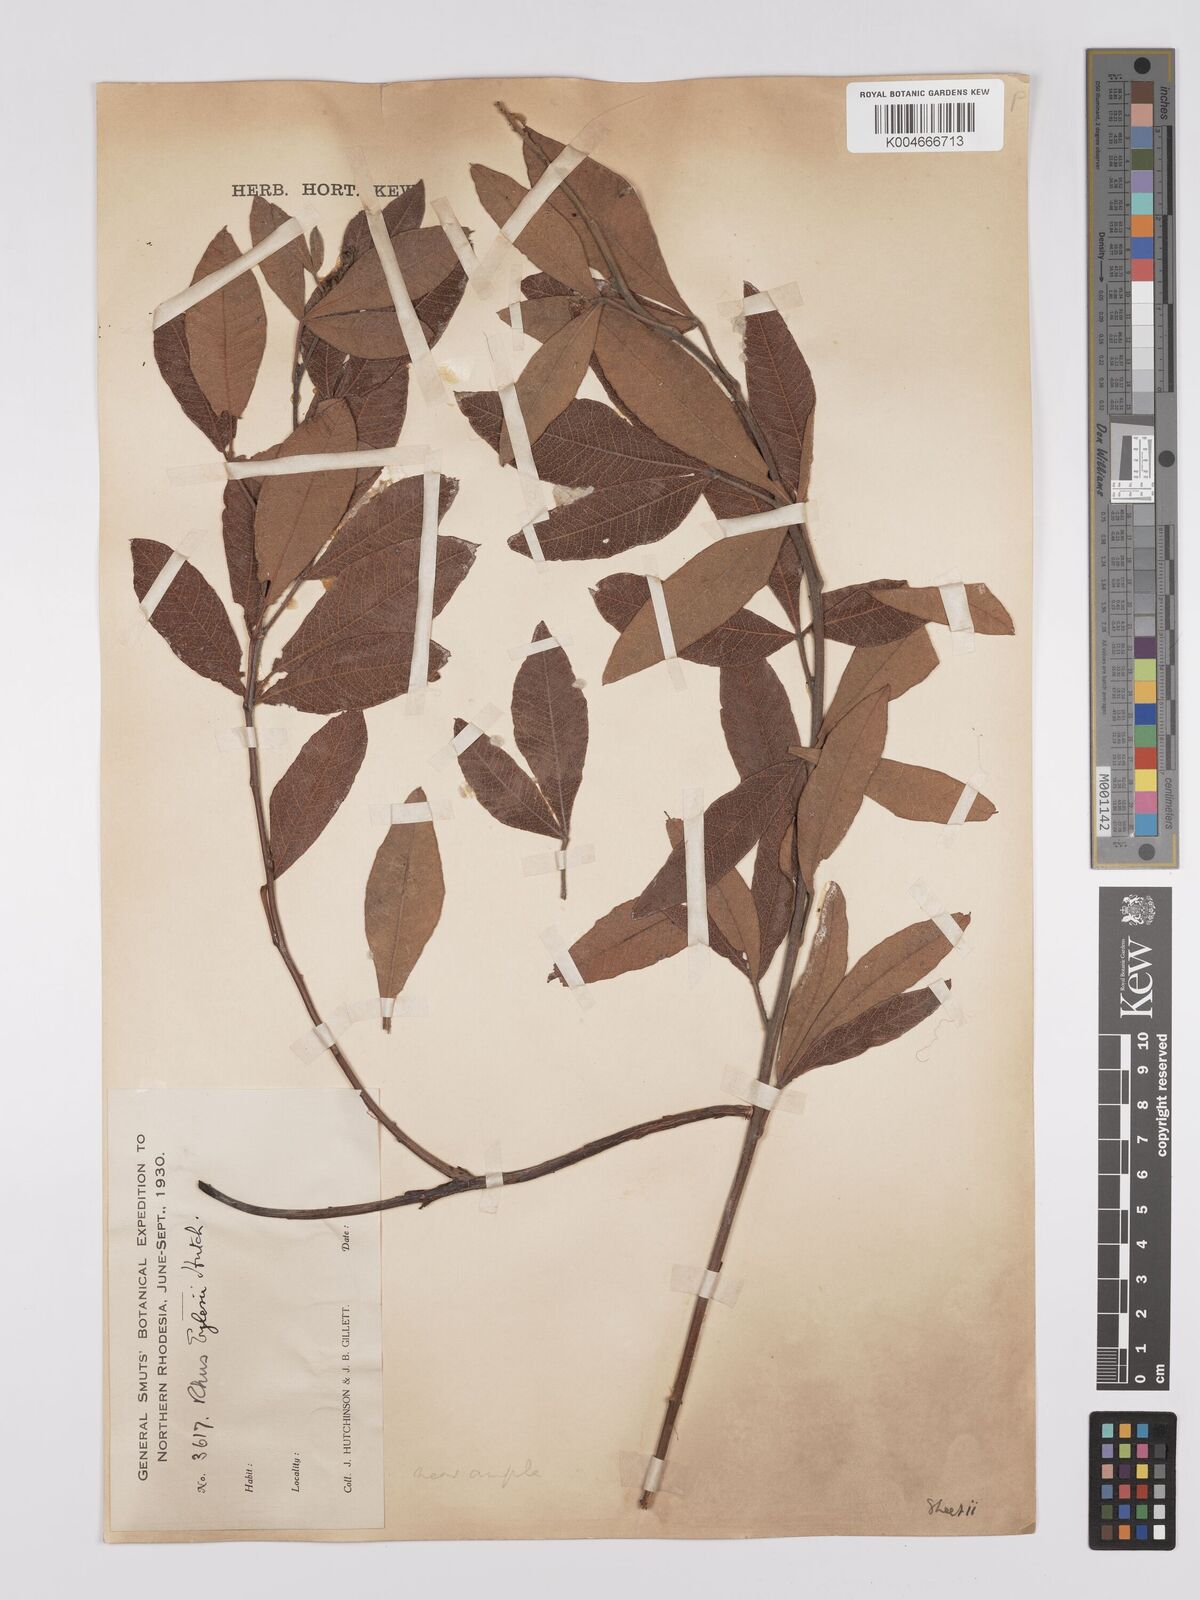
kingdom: Plantae
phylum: Tracheophyta
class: Magnoliopsida
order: Sapindales
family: Anacardiaceae
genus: Searsia
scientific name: Searsia kirkii
